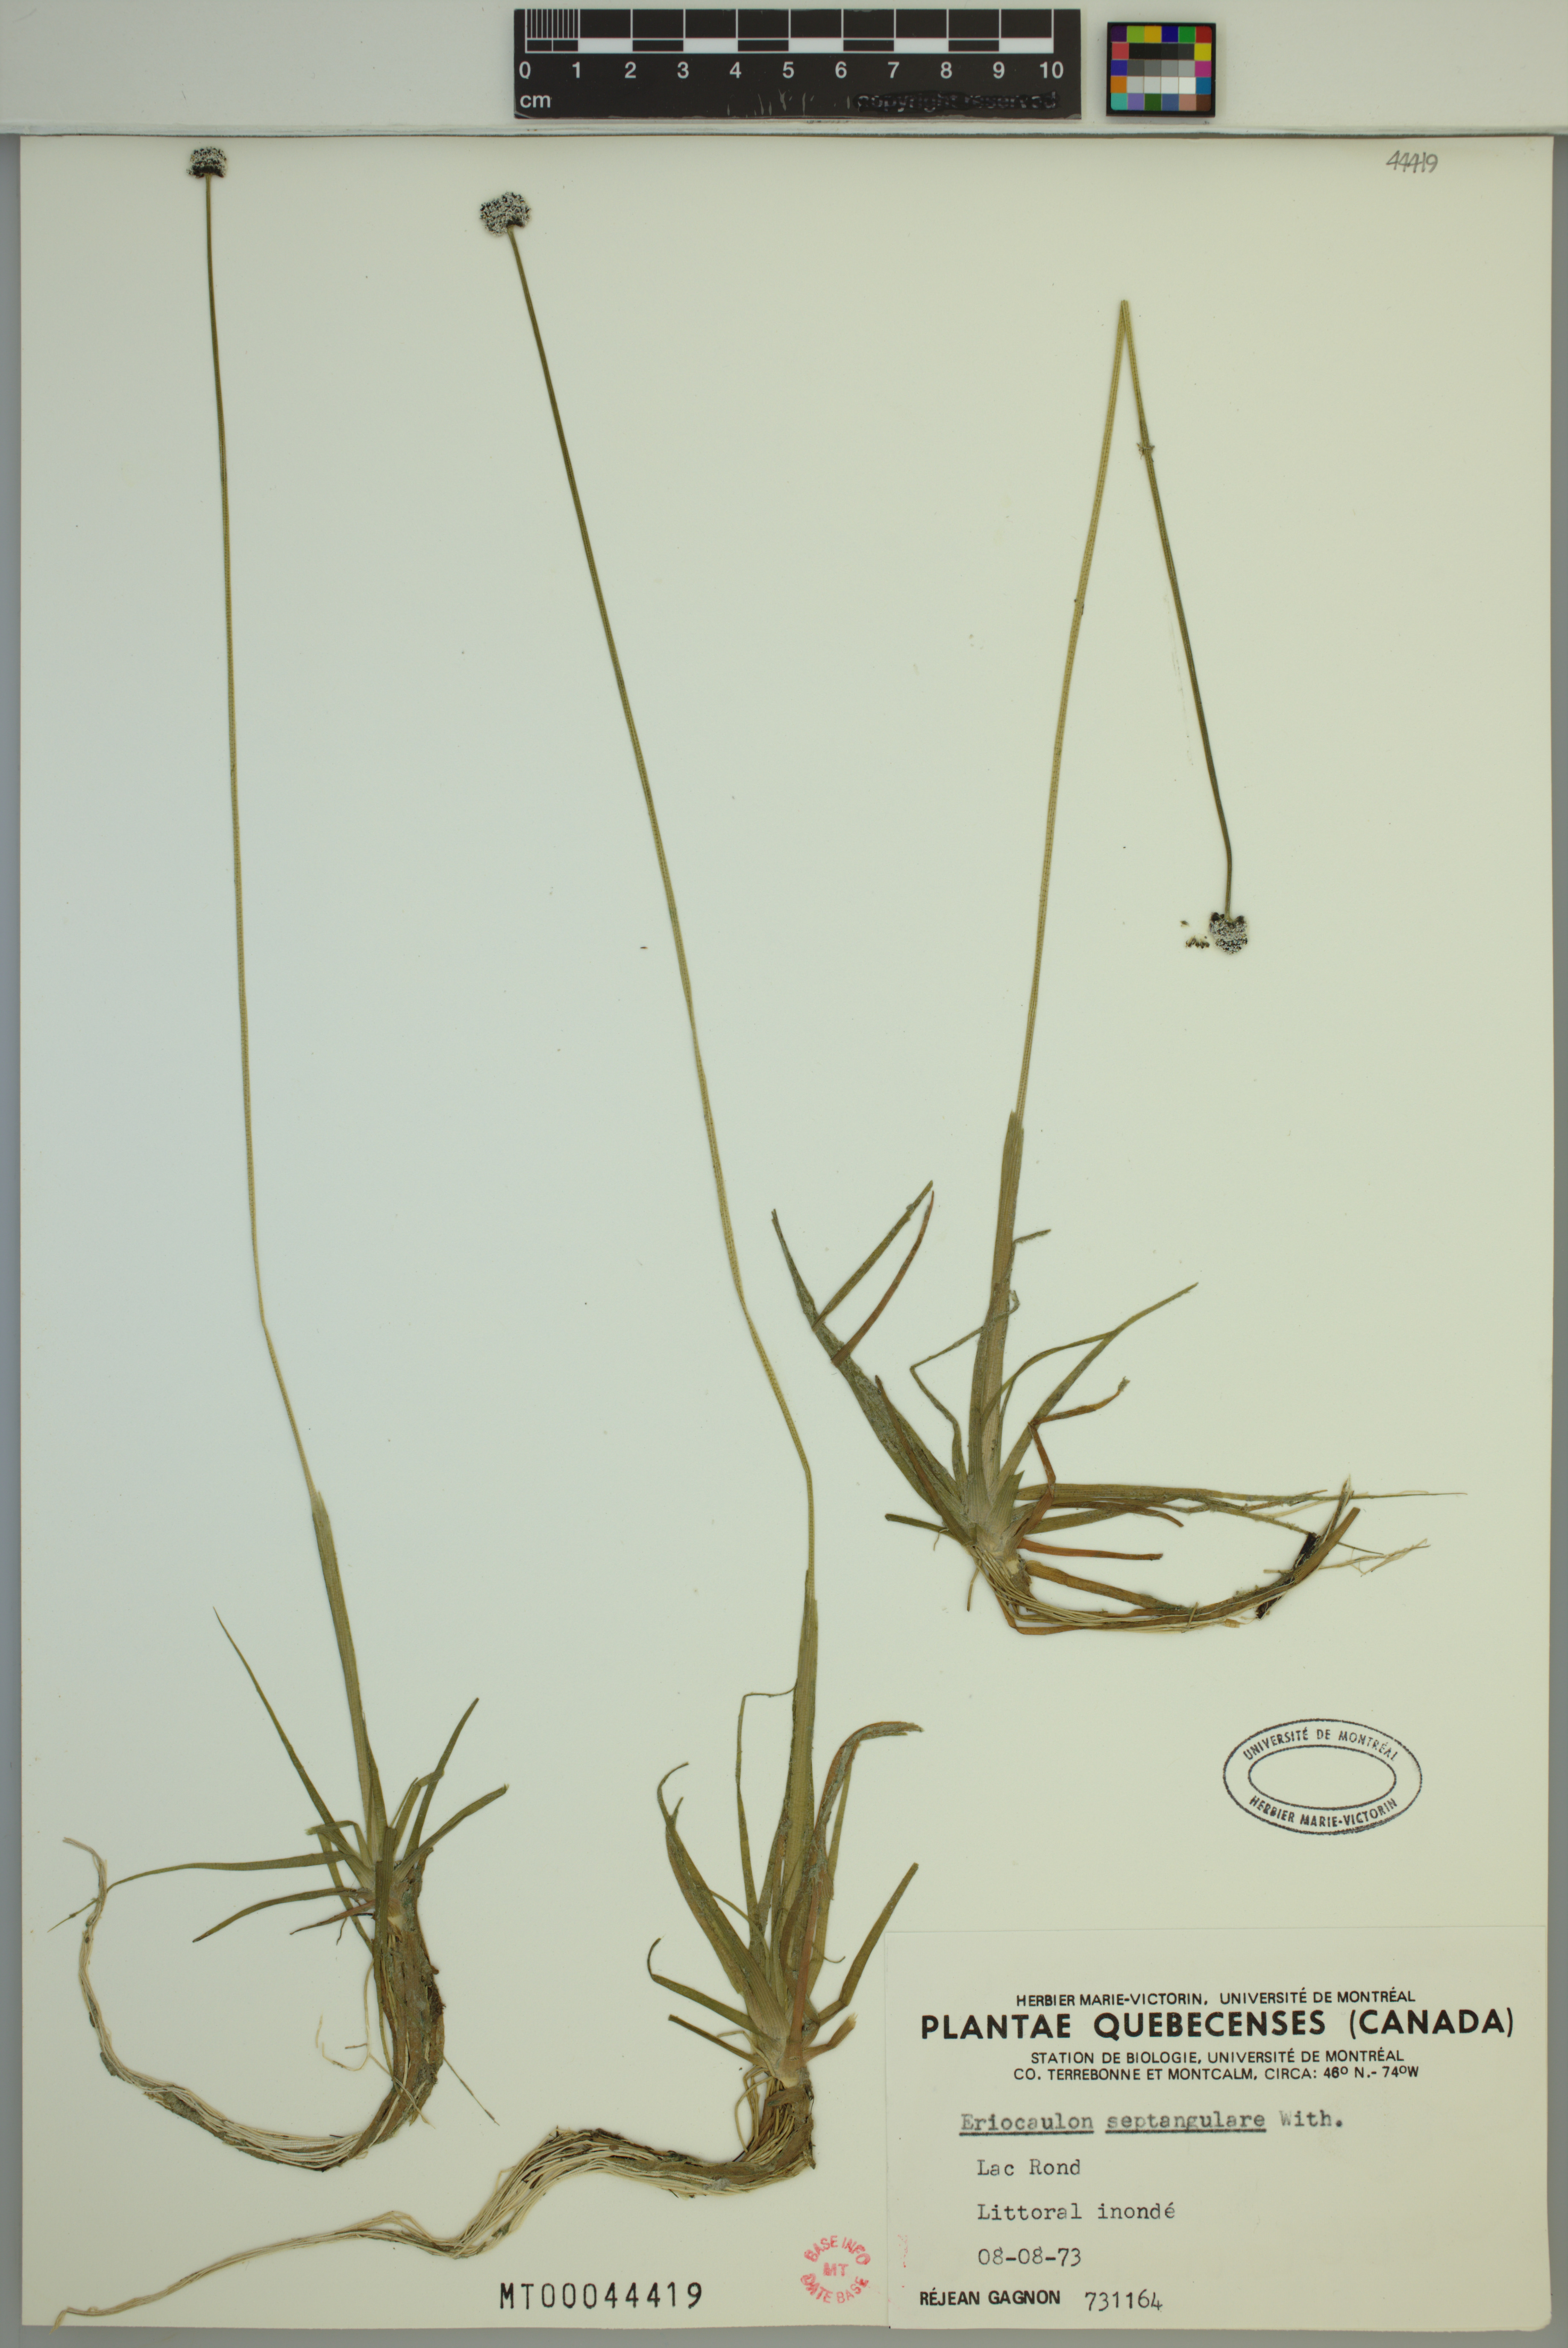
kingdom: Plantae
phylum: Tracheophyta
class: Liliopsida
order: Poales
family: Eriocaulaceae
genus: Eriocaulon
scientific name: Eriocaulon aquaticum
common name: Pipewort
